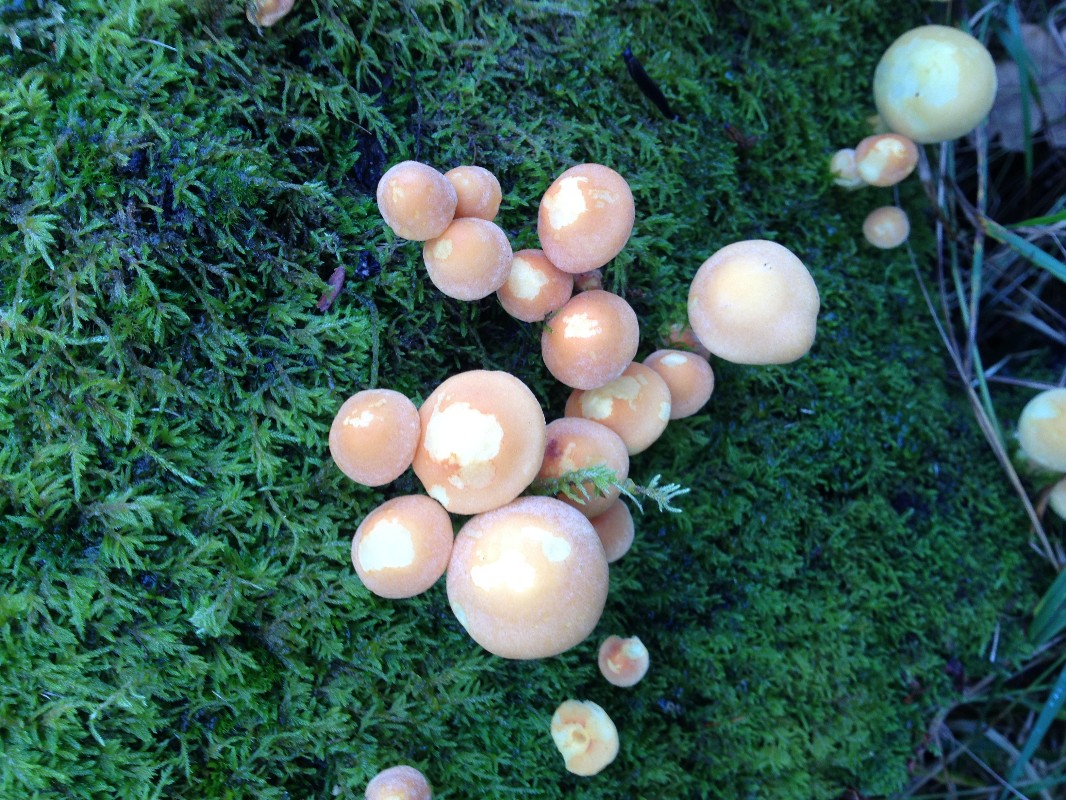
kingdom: Fungi
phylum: Basidiomycota
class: Agaricomycetes
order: Agaricales
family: Strophariaceae
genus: Hypholoma
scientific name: Hypholoma fasciculare
